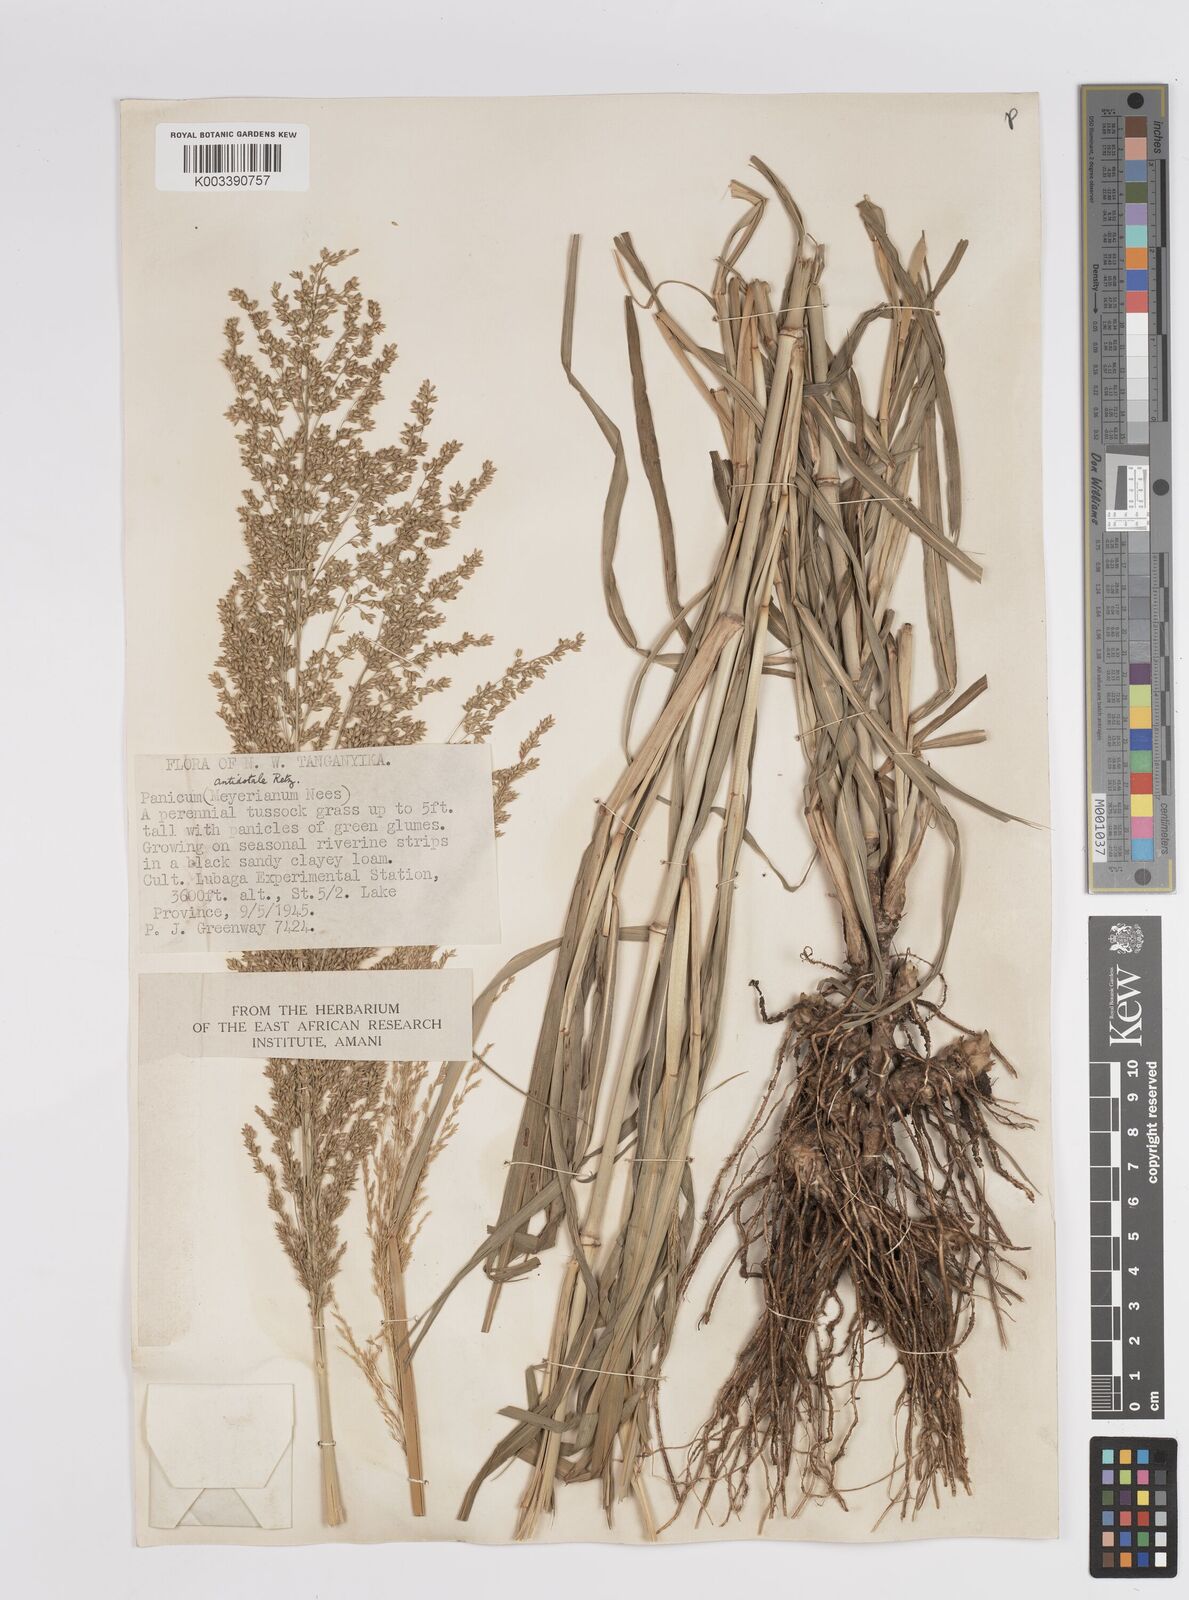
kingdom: Plantae
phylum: Tracheophyta
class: Liliopsida
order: Poales
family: Poaceae
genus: Panicum
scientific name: Panicum antidotale
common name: Blue panicum
